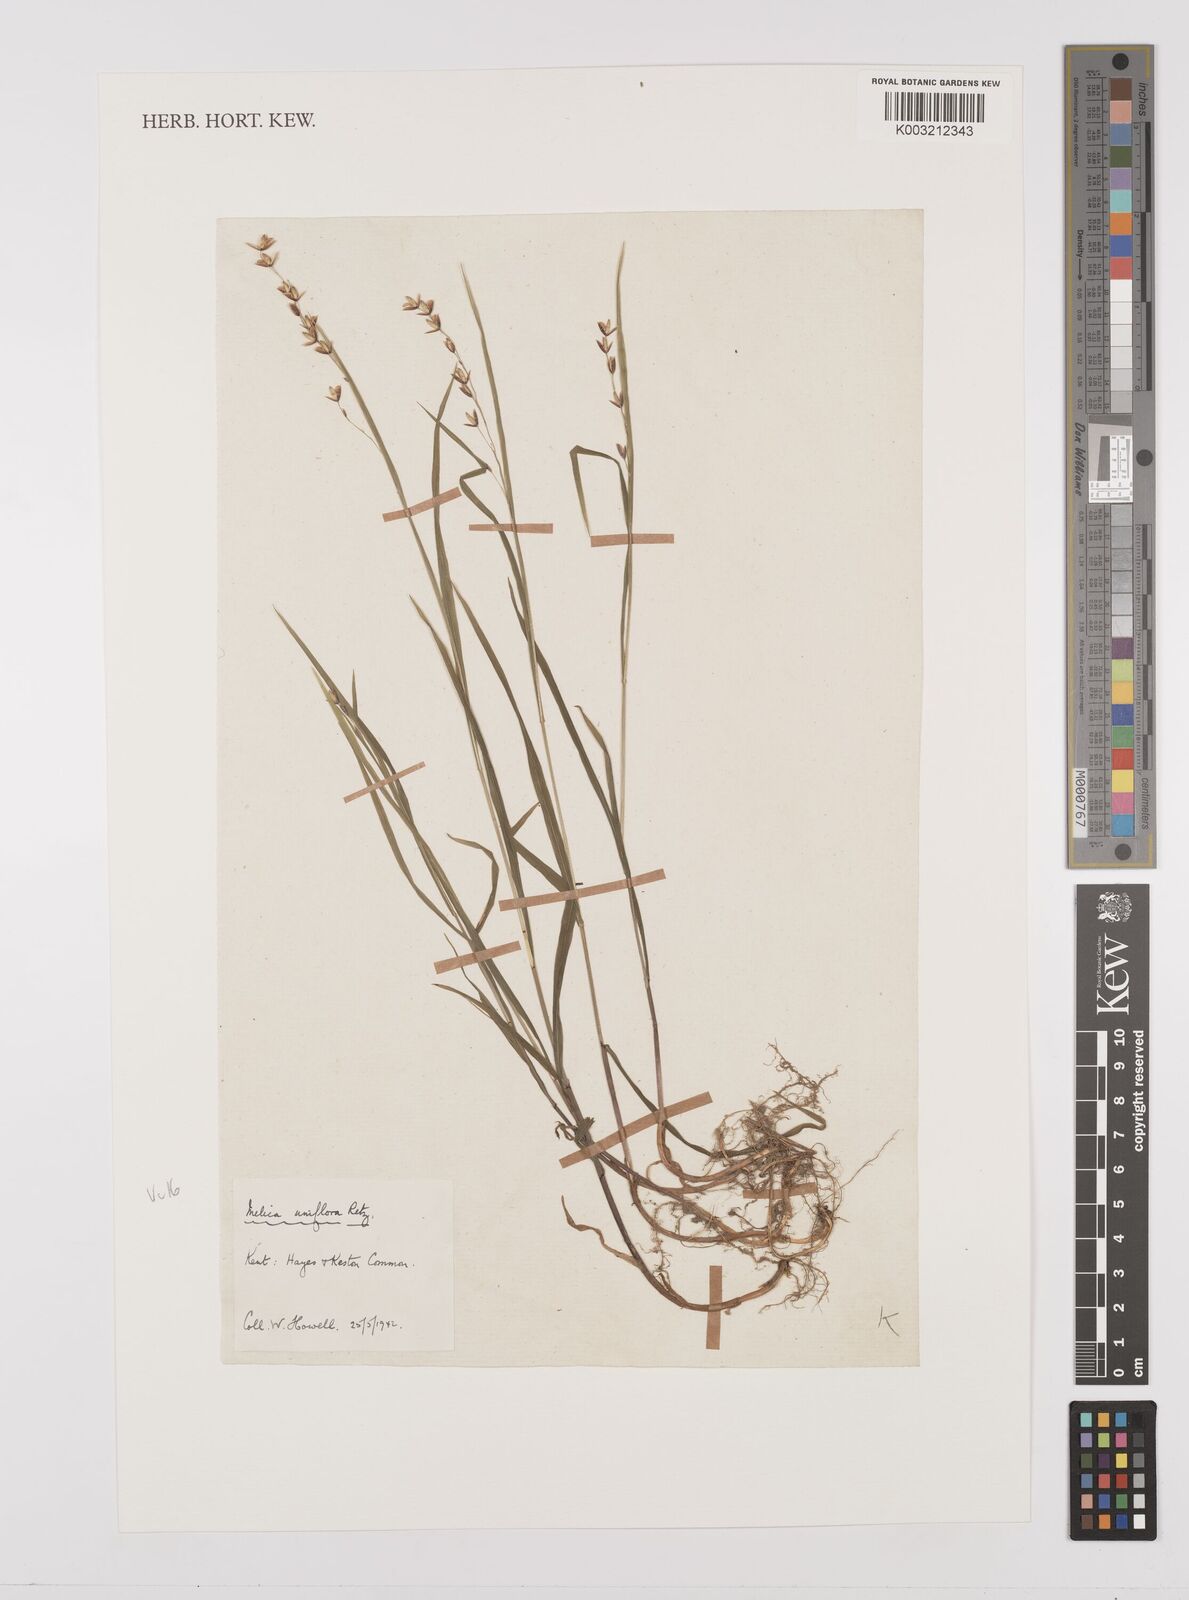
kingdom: Plantae
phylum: Tracheophyta
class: Liliopsida
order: Poales
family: Poaceae
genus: Melica
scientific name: Melica uniflora
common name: Wood melick
